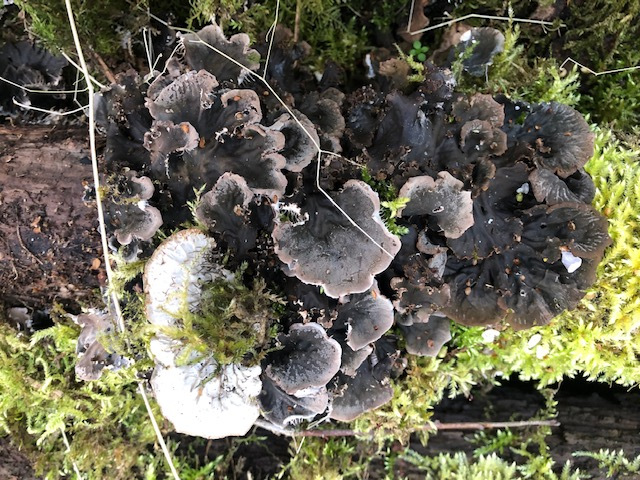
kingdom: Fungi
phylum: Ascomycota
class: Lecanoromycetes
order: Peltigerales
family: Peltigeraceae
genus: Peltigera
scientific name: Peltigera membranacea
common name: tynd skjoldlav
